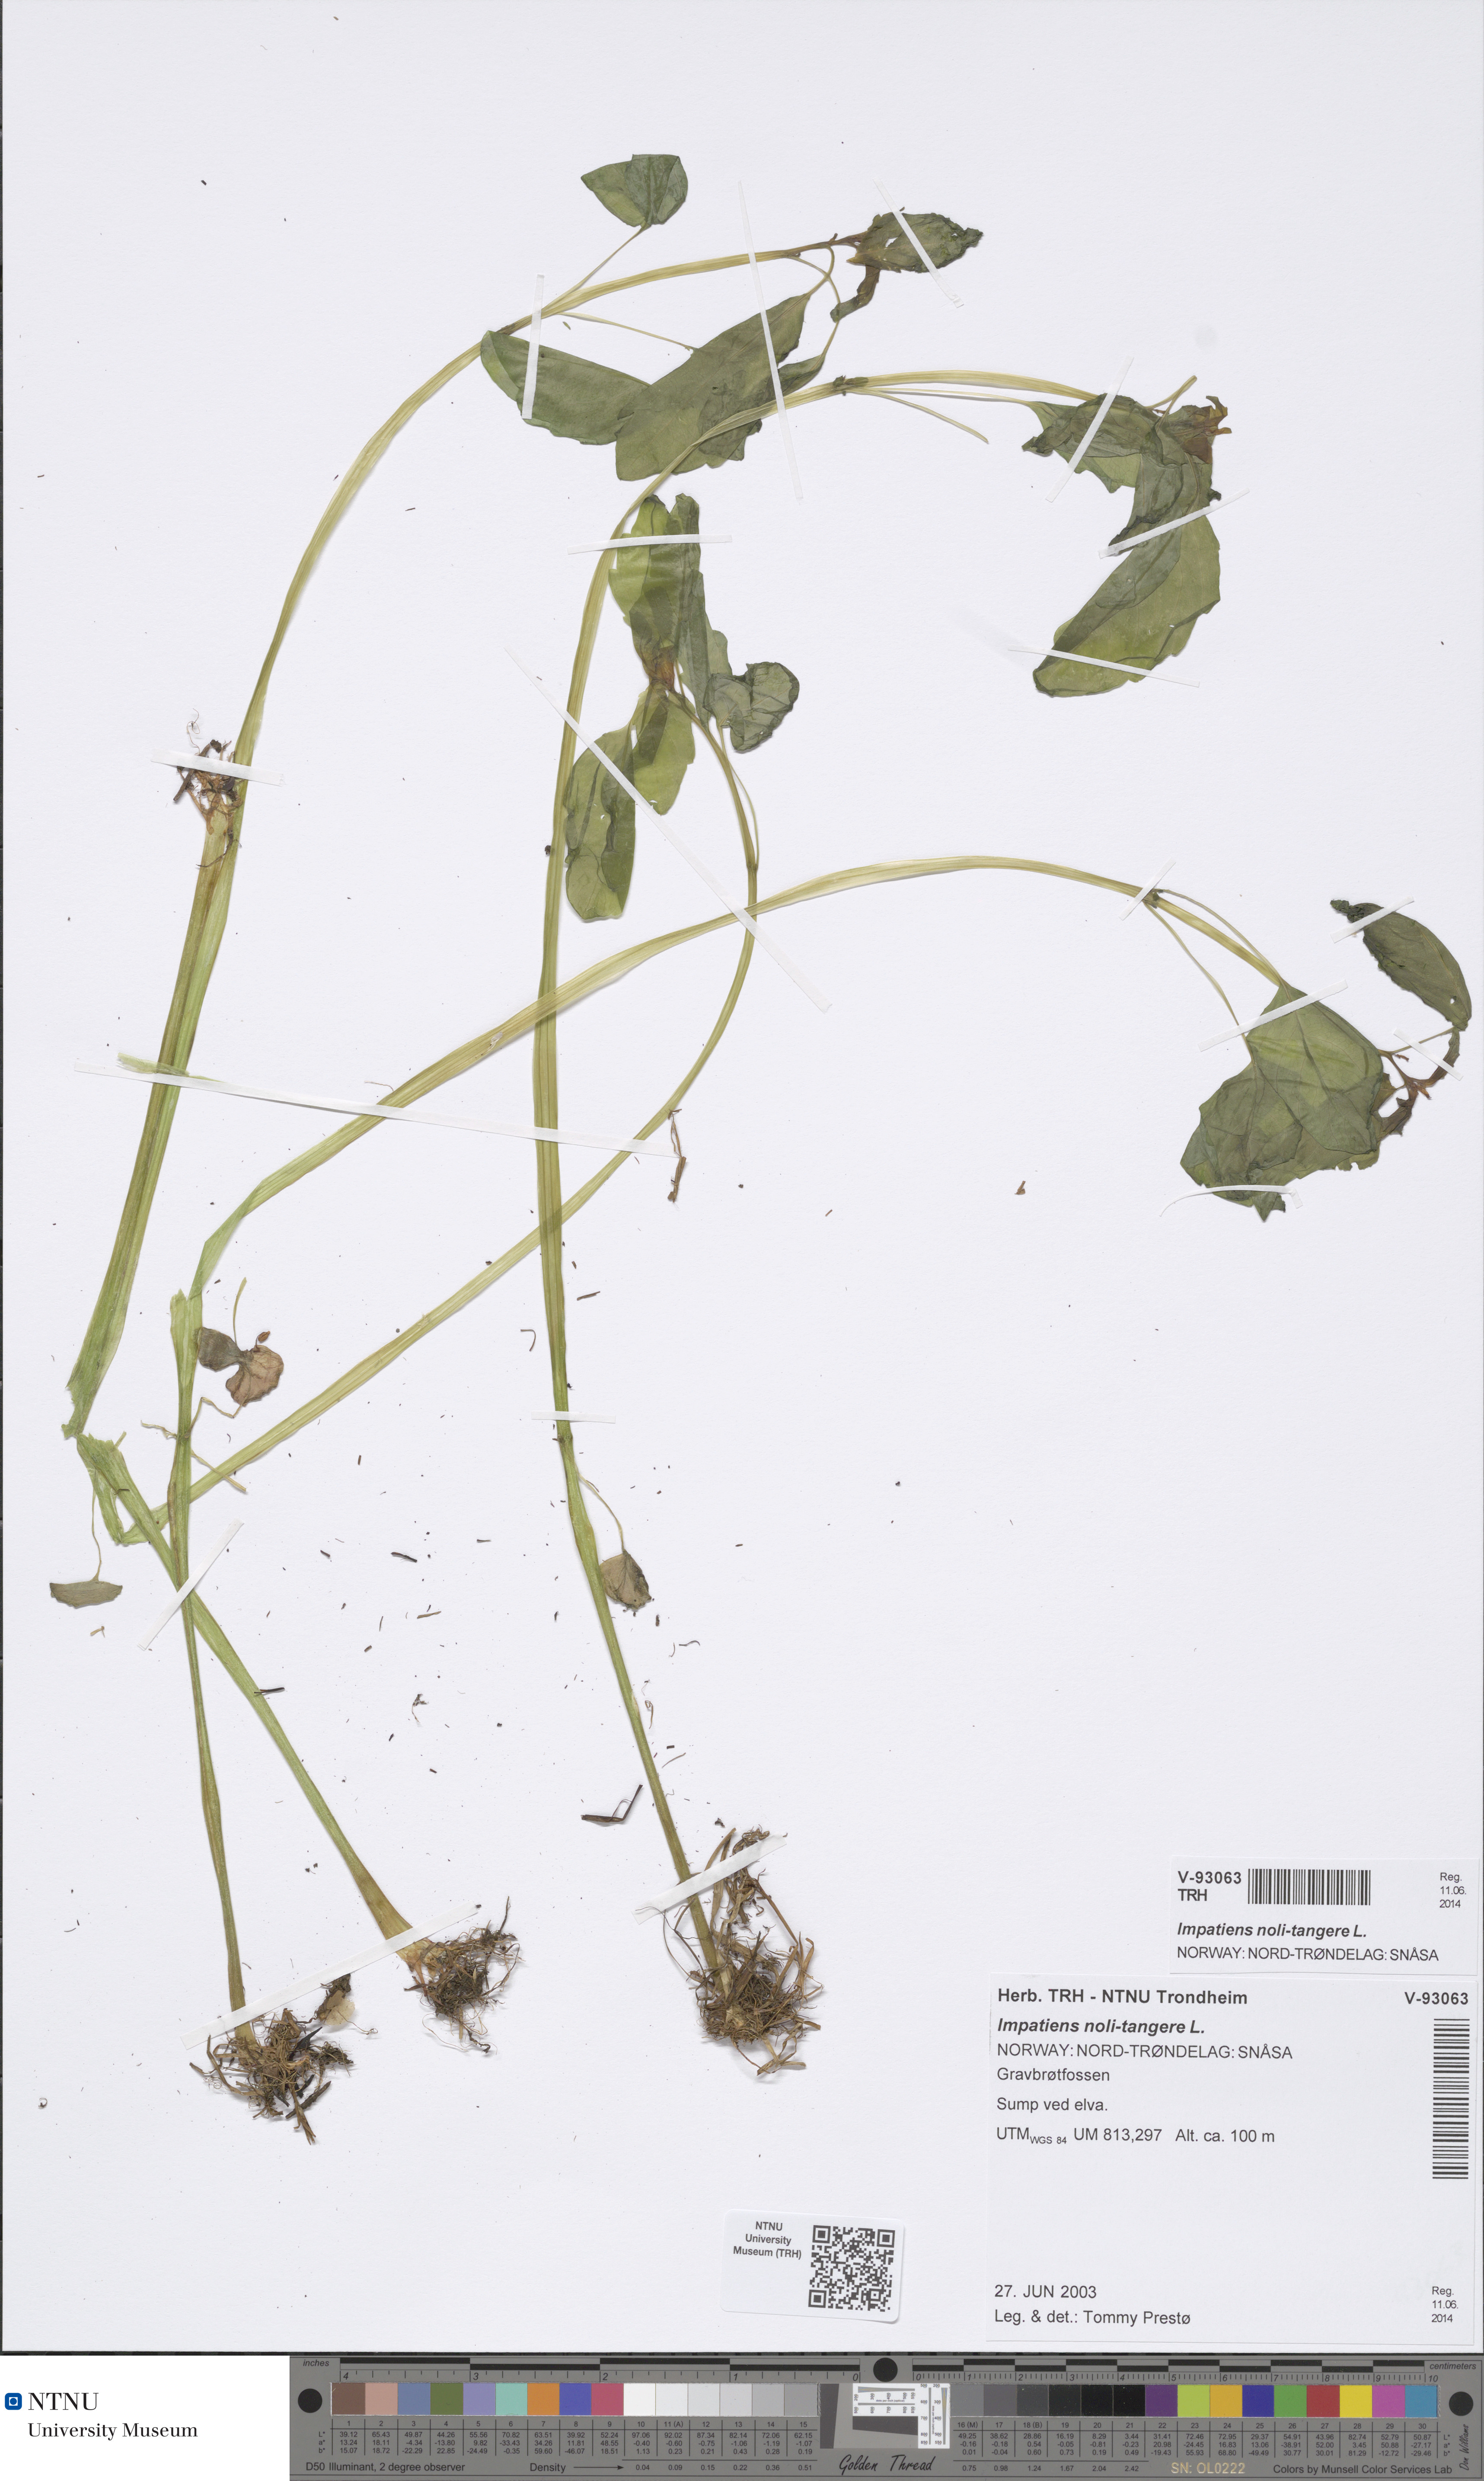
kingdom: Plantae
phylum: Tracheophyta
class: Magnoliopsida
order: Ericales
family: Balsaminaceae
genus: Impatiens
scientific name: Impatiens noli-tangere
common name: Touch-me-not balsam
